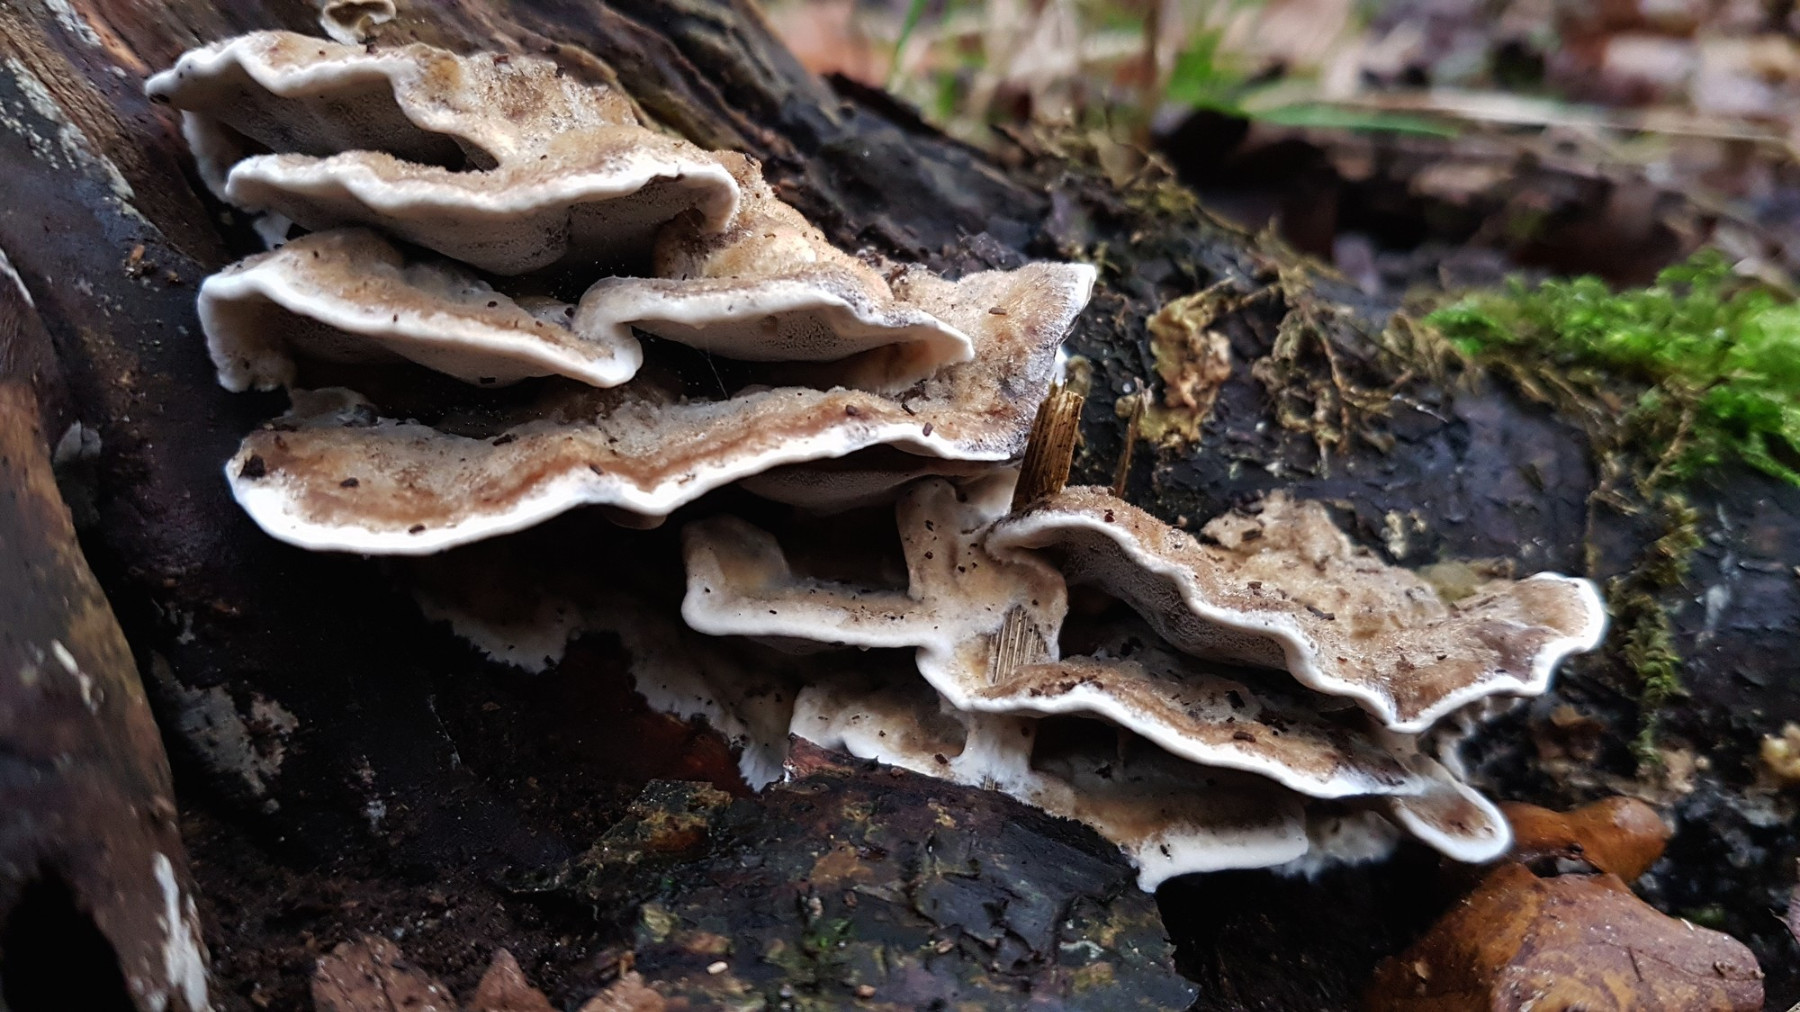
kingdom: Fungi
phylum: Basidiomycota
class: Agaricomycetes
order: Polyporales
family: Phanerochaetaceae
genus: Bjerkandera
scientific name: Bjerkandera fumosa
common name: grågul sodporesvamp
